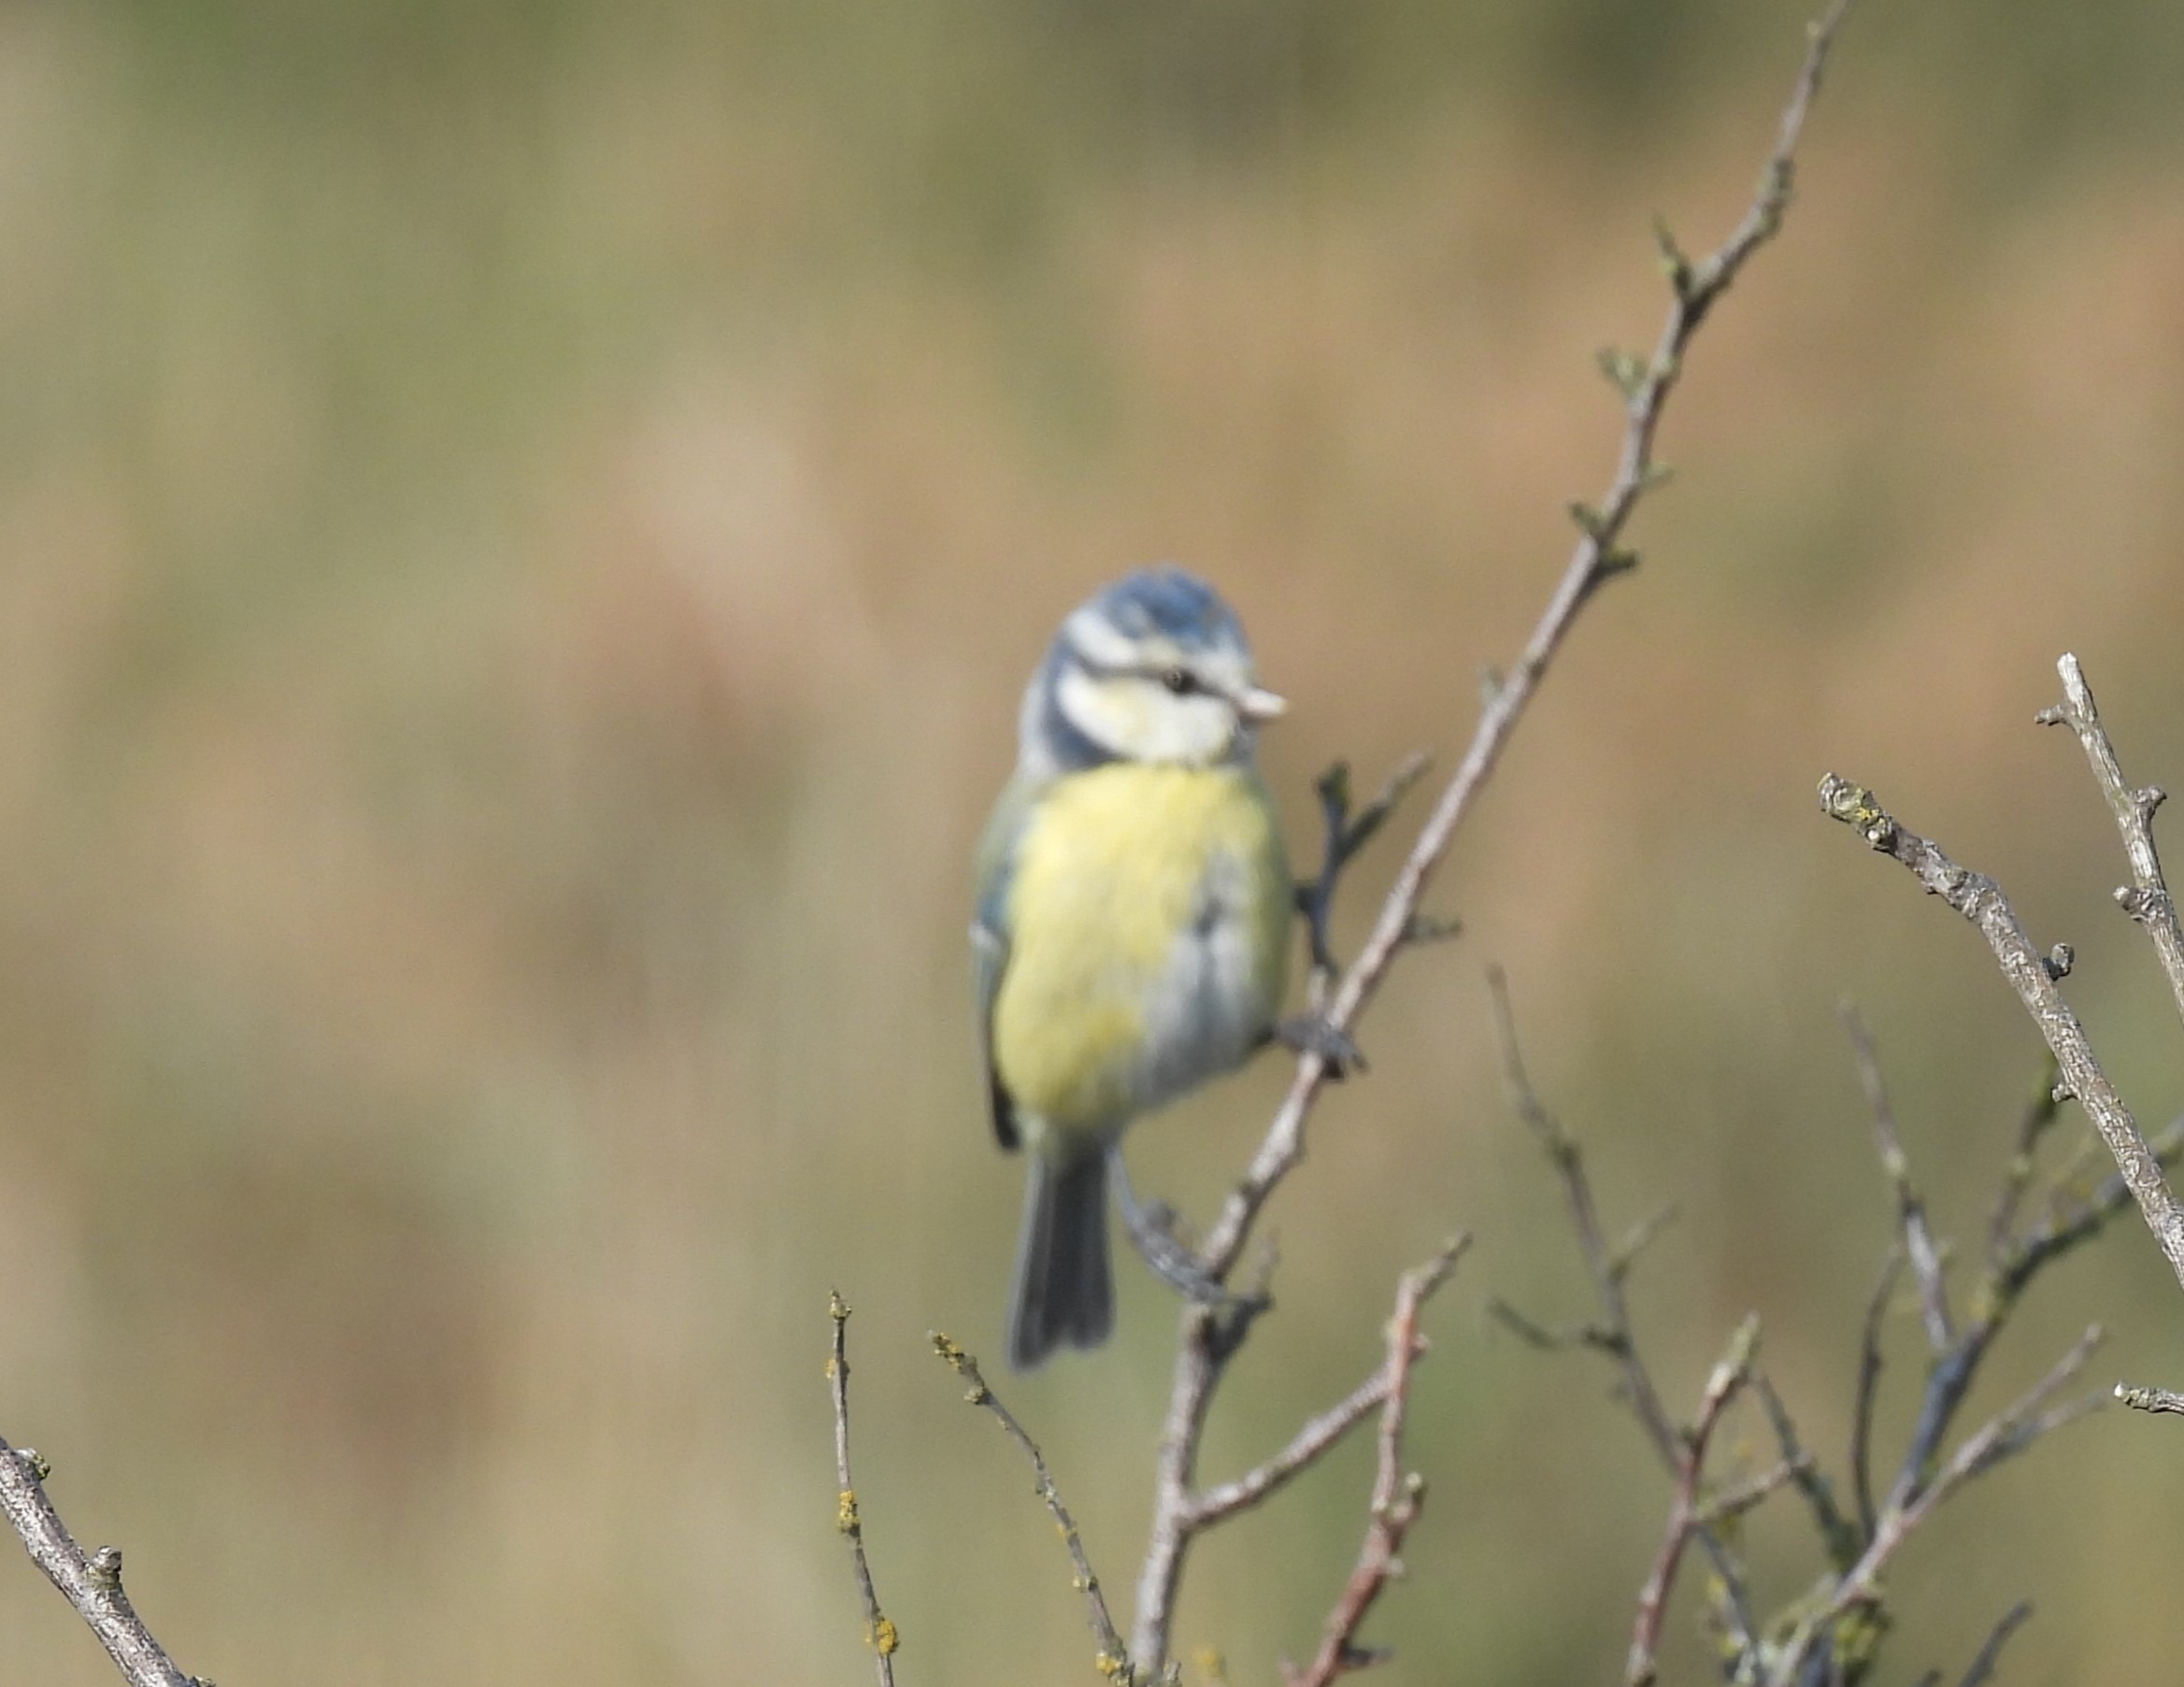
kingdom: Animalia
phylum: Chordata
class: Aves
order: Passeriformes
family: Paridae
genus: Cyanistes
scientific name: Cyanistes caeruleus
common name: Blåmejse
